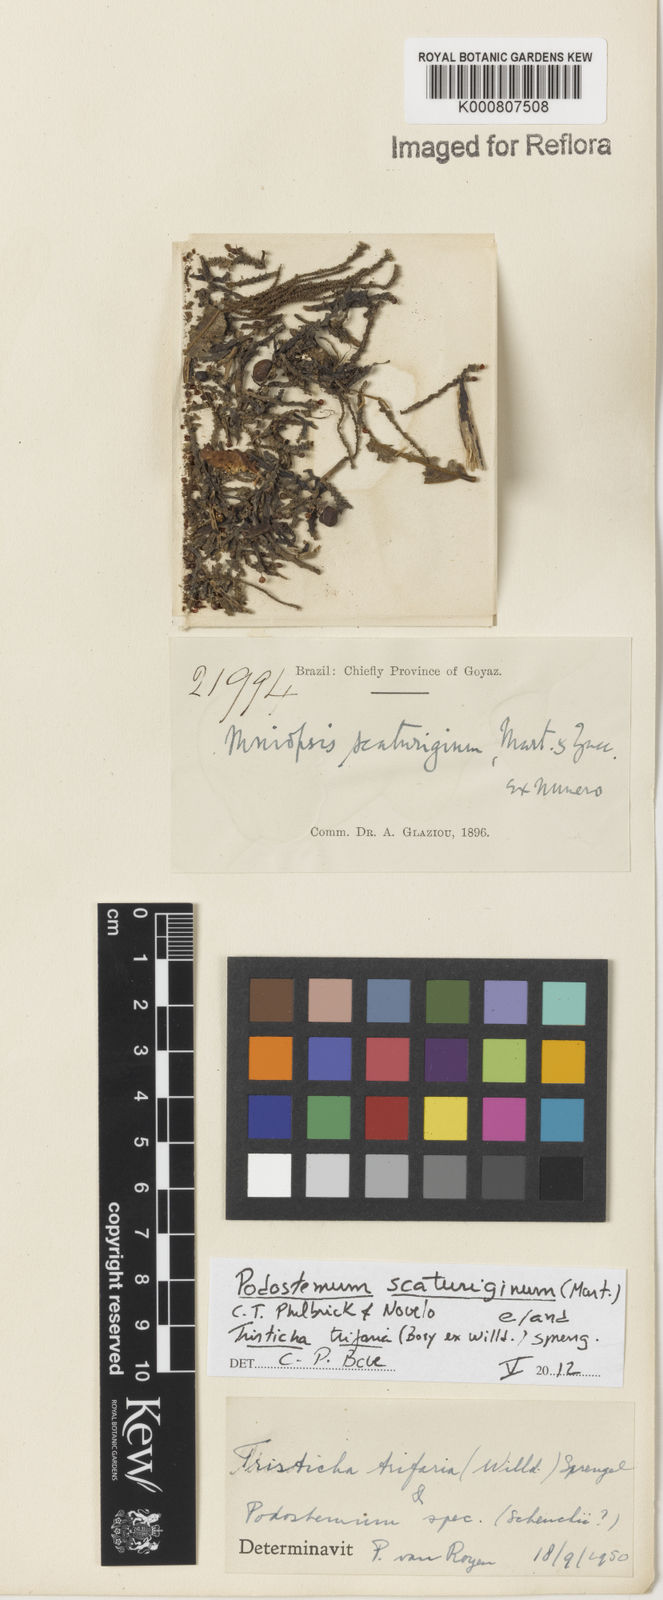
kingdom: Plantae
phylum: Tracheophyta
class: Magnoliopsida
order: Malpighiales
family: Podostemaceae
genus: Tristicha
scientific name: Tristicha trifaria
